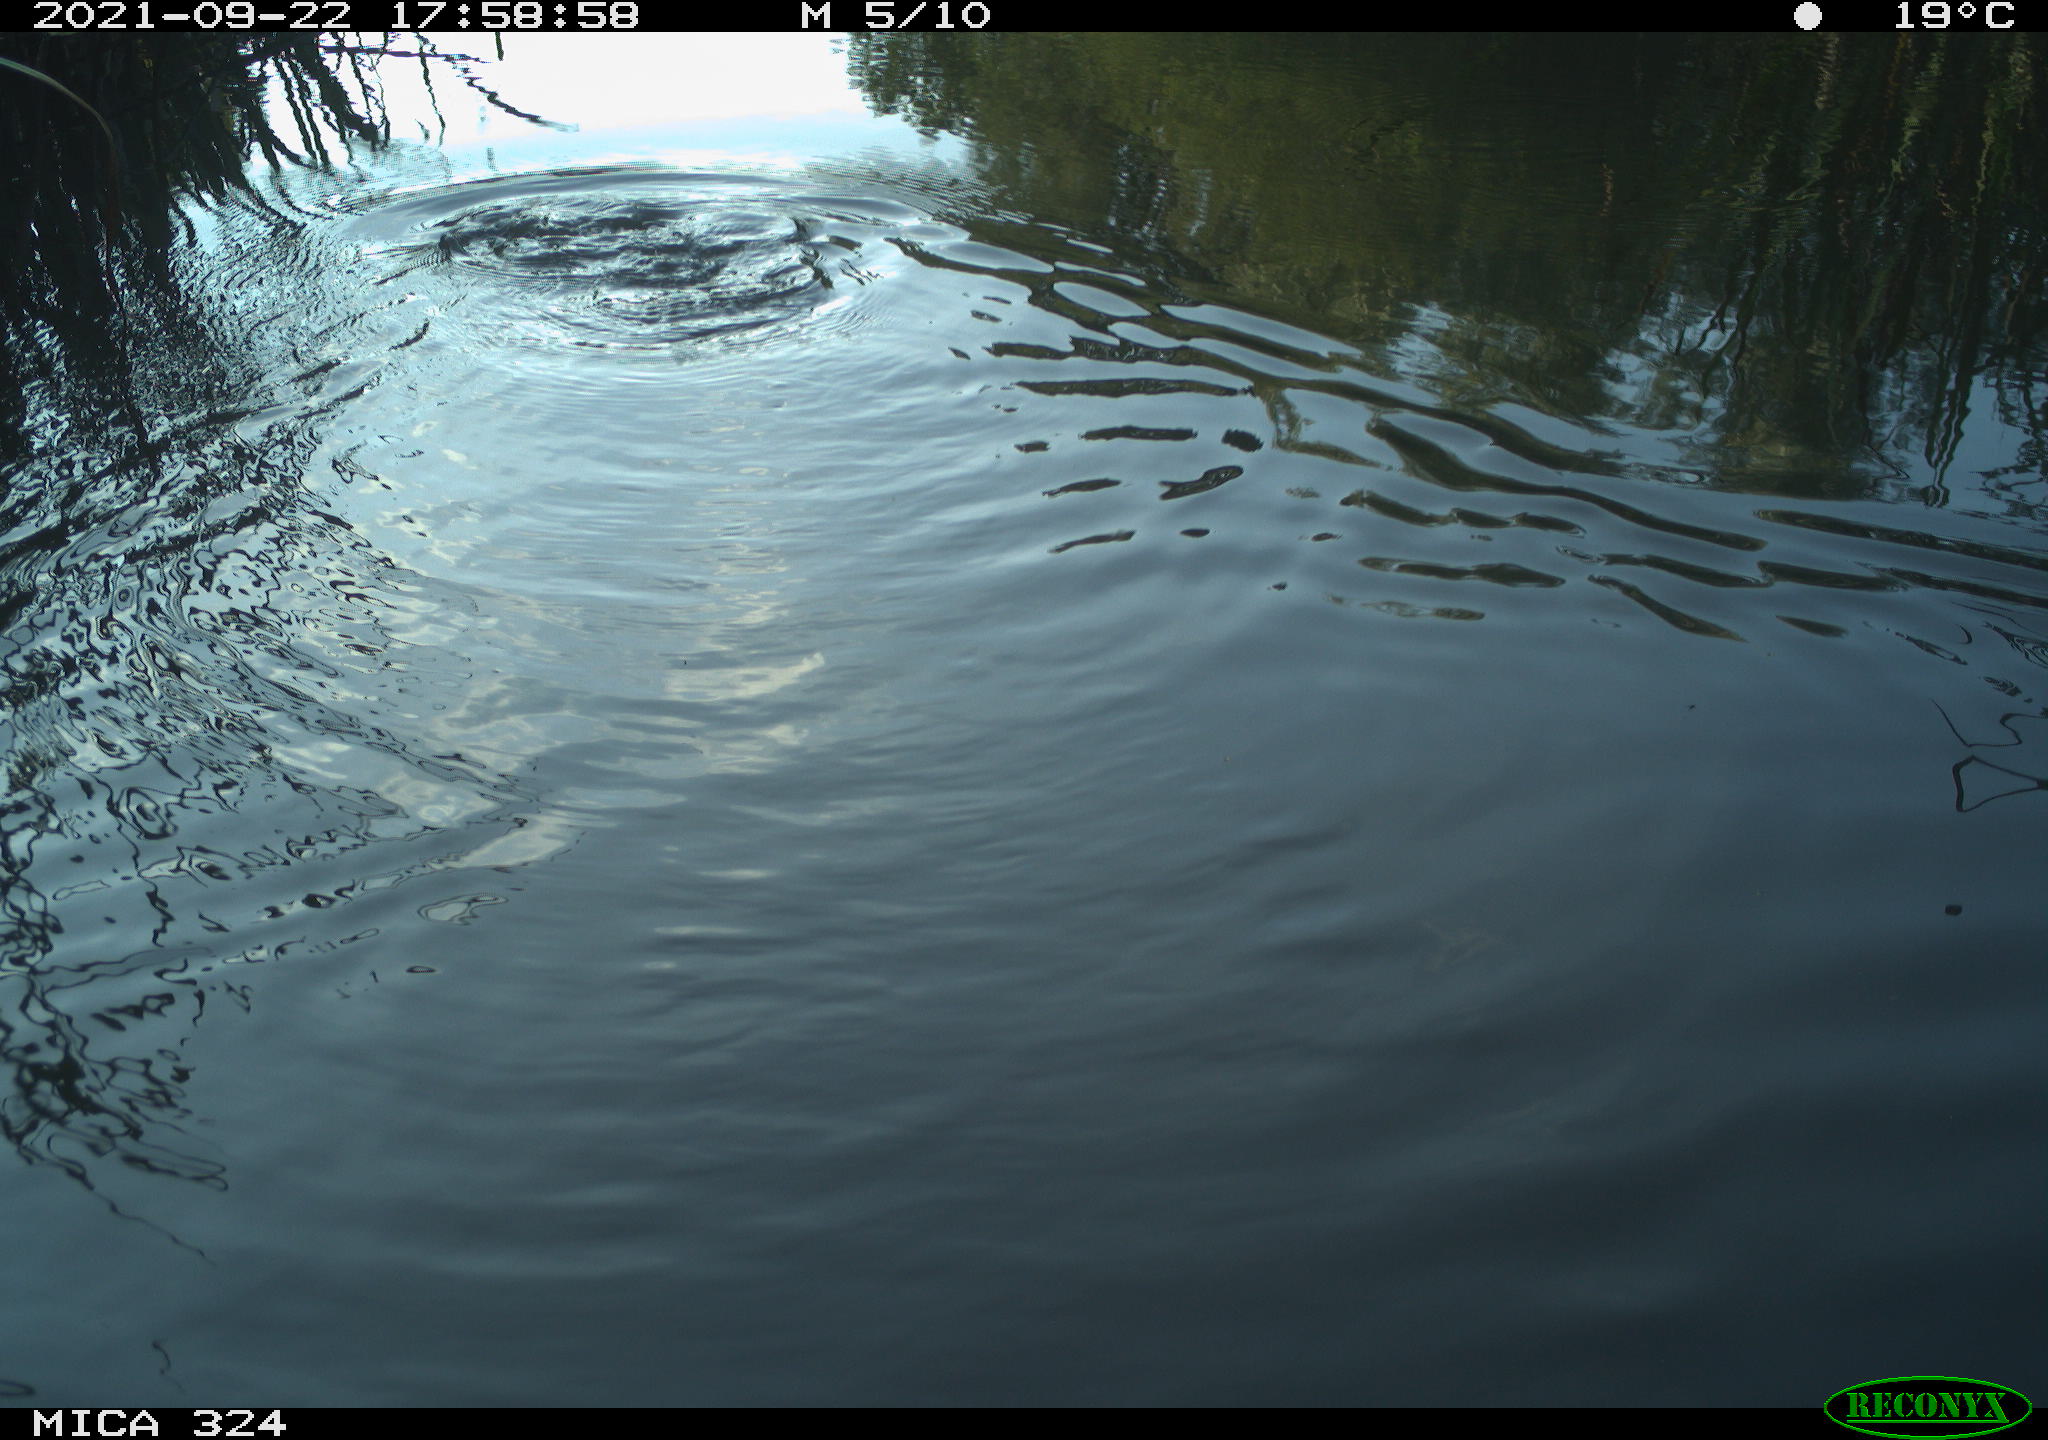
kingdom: Animalia
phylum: Chordata
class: Mammalia
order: Rodentia
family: Cricetidae
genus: Ondatra
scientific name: Ondatra zibethicus
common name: Muskrat
